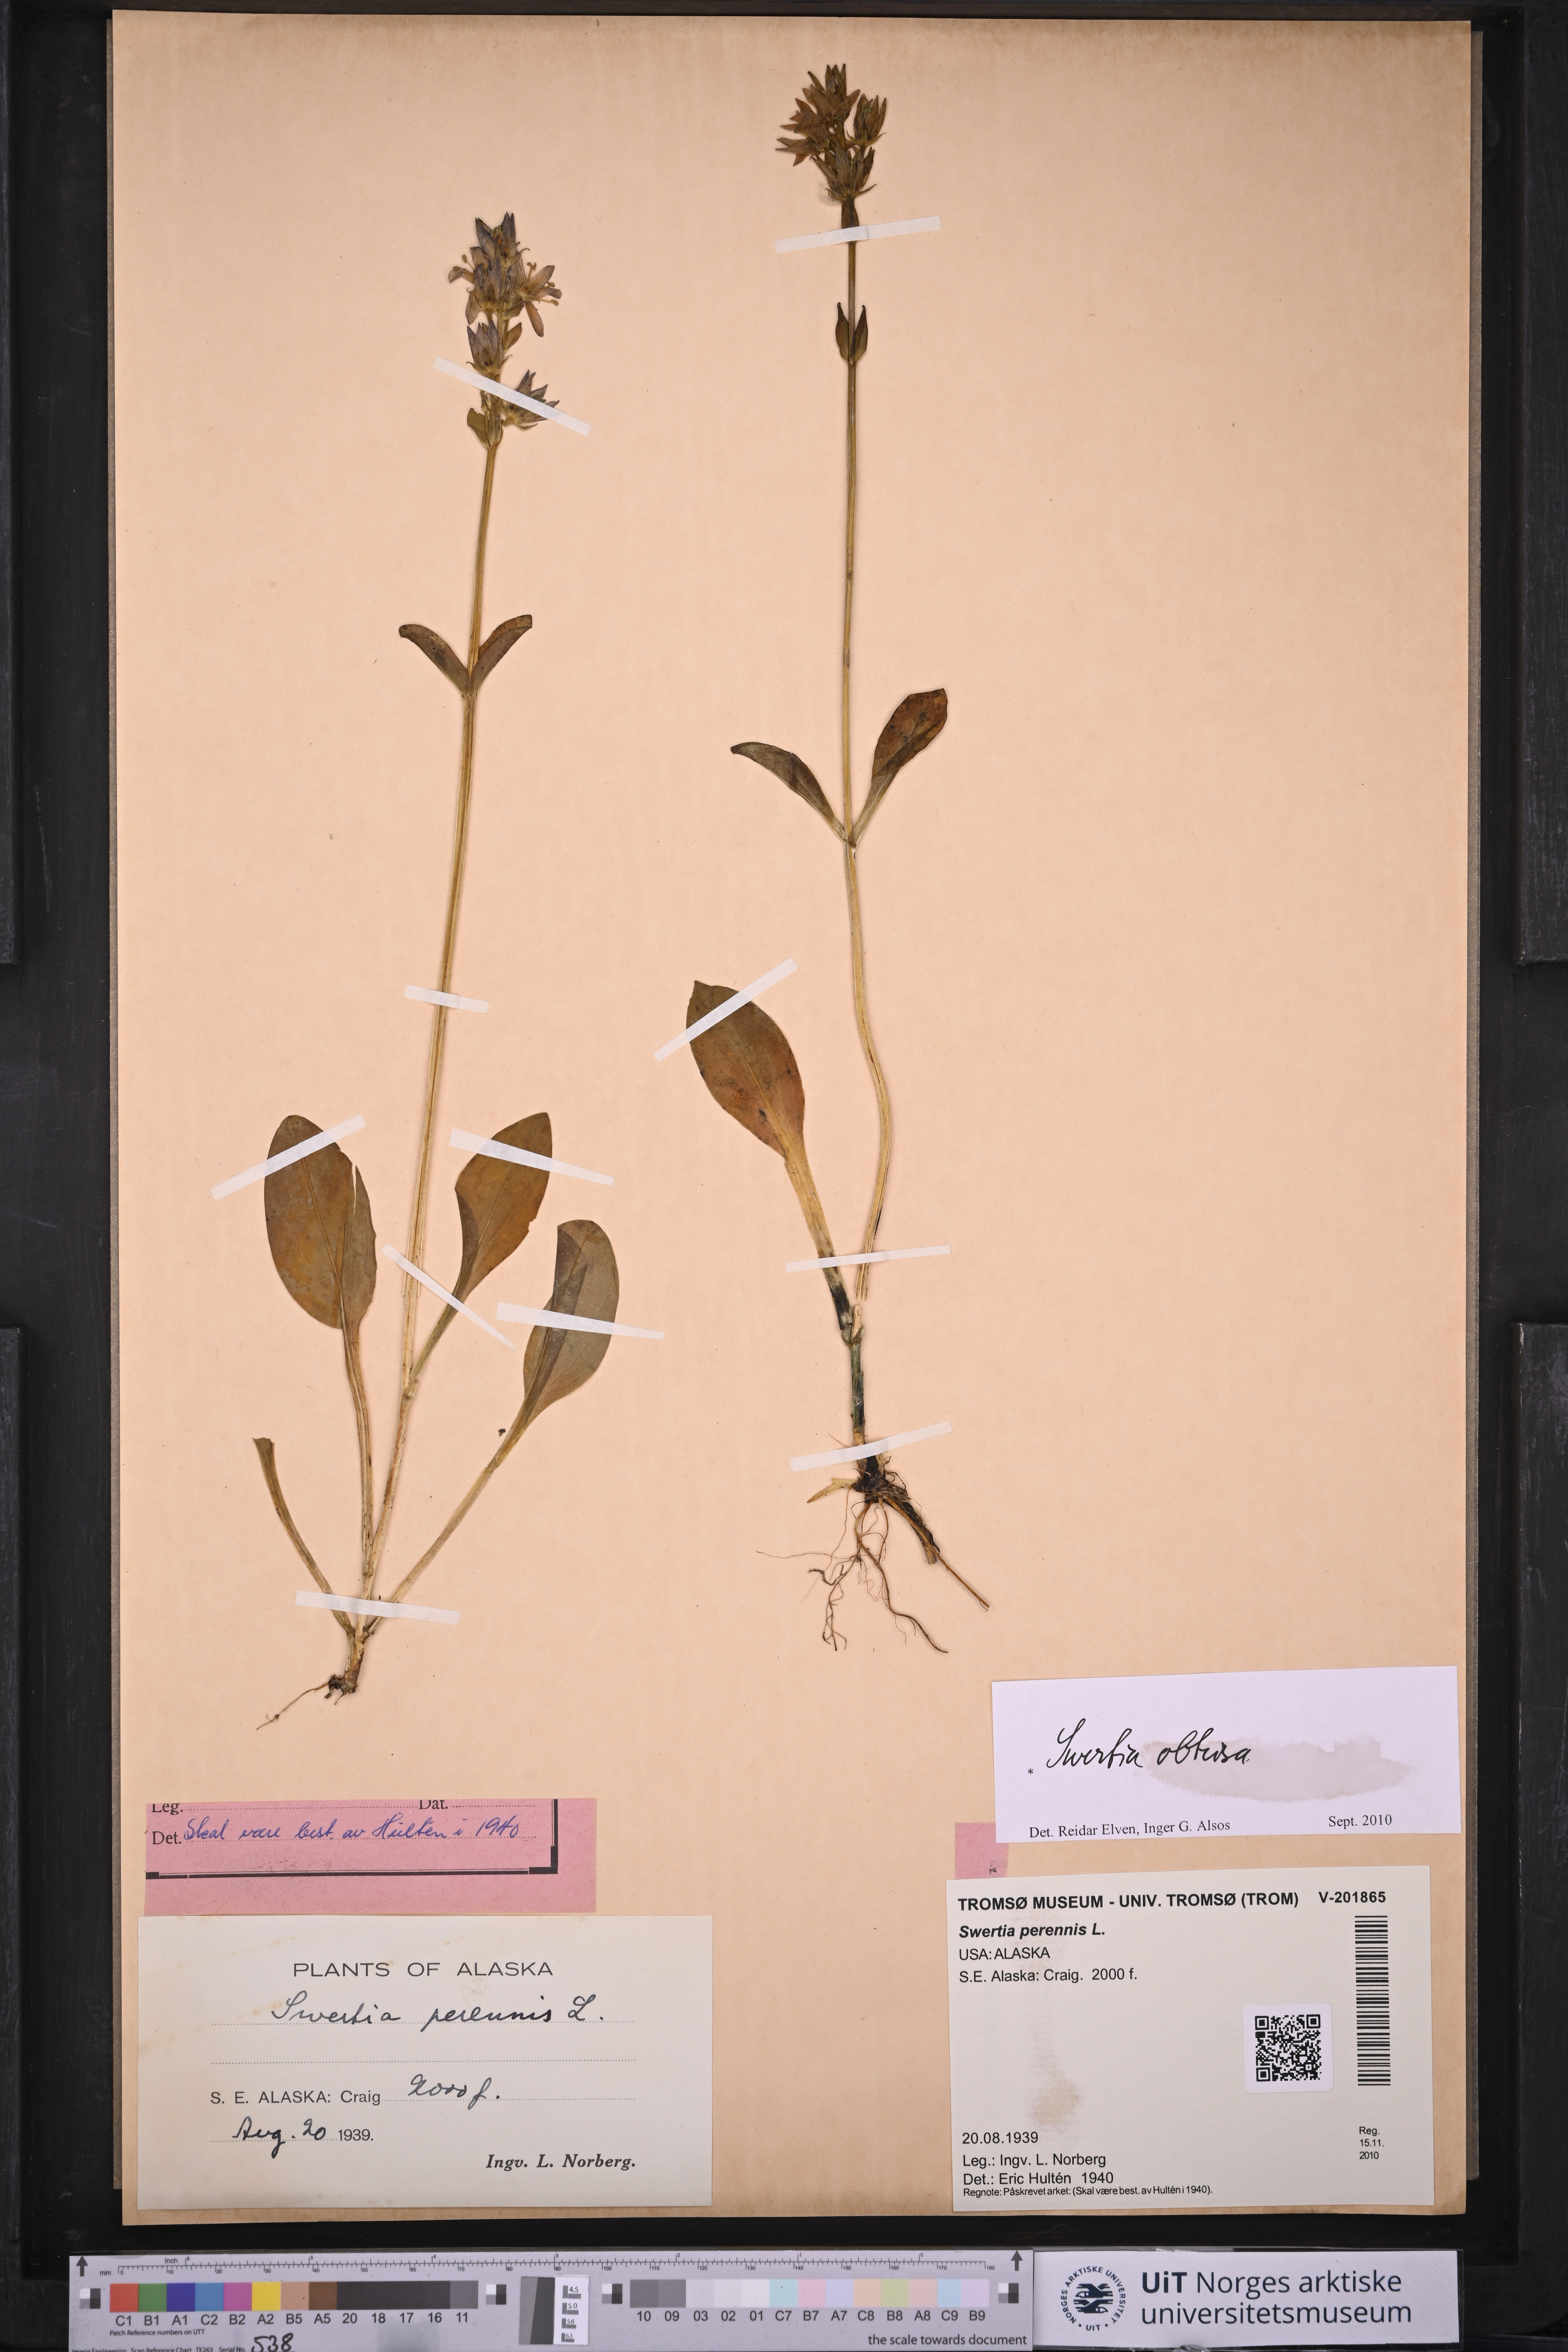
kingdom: Plantae
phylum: Tracheophyta
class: Magnoliopsida
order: Gentianales
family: Gentianaceae
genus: Swertia
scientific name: Swertia obtusa
